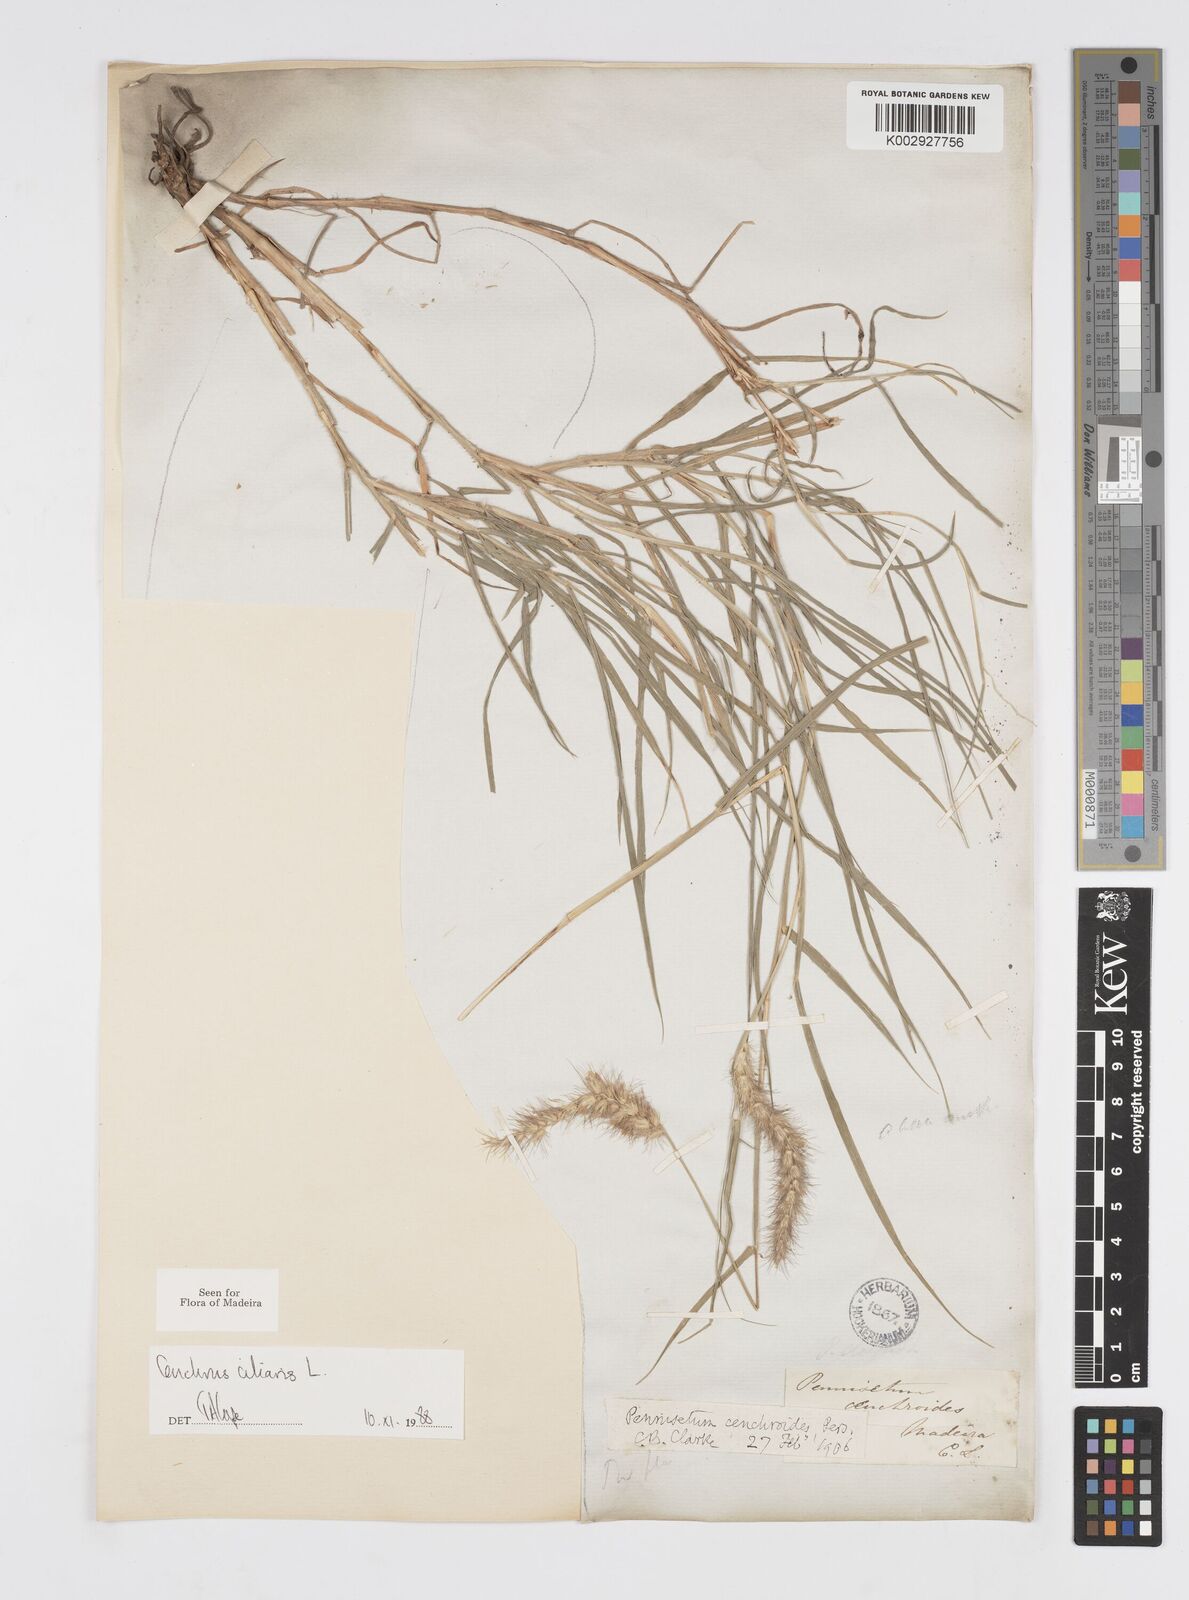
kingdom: Plantae
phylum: Tracheophyta
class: Liliopsida
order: Poales
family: Poaceae
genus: Cenchrus
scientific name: Cenchrus ciliaris
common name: Buffelgrass
